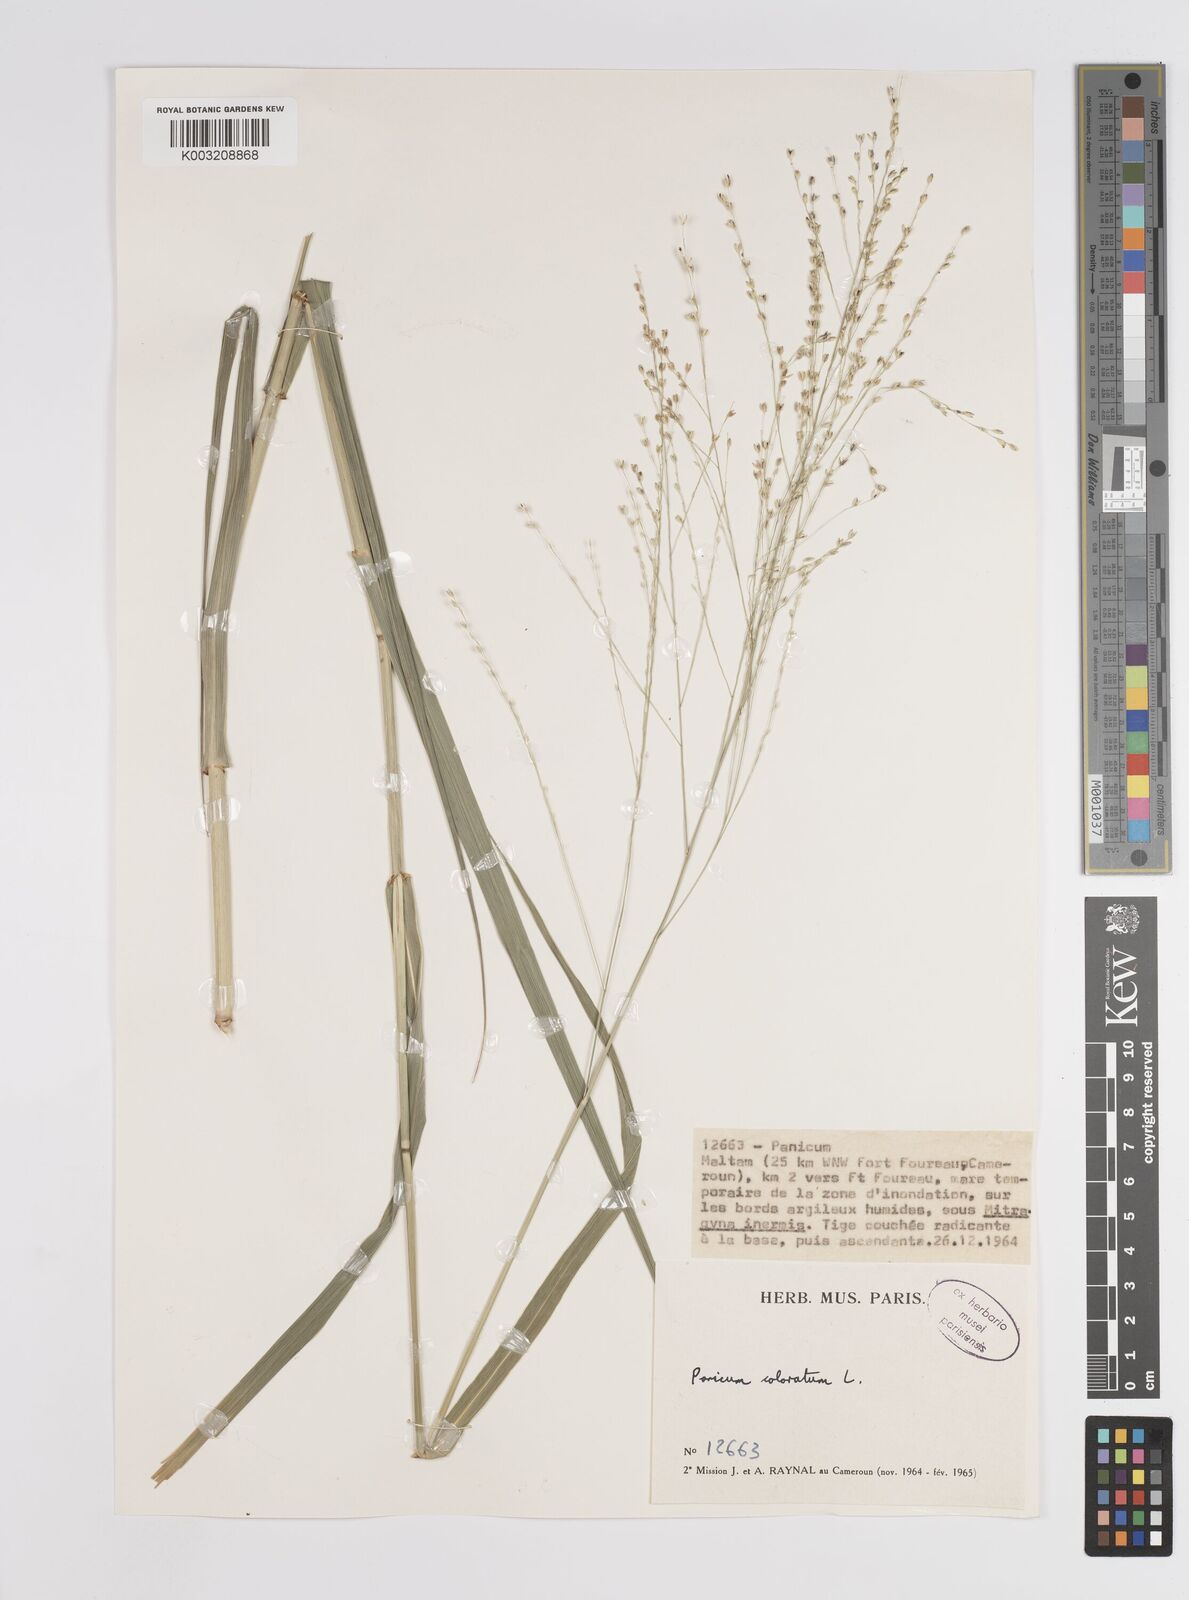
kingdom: Plantae
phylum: Tracheophyta
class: Liliopsida
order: Poales
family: Poaceae
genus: Panicum
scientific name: Panicum coloratum
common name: Kleingrass
